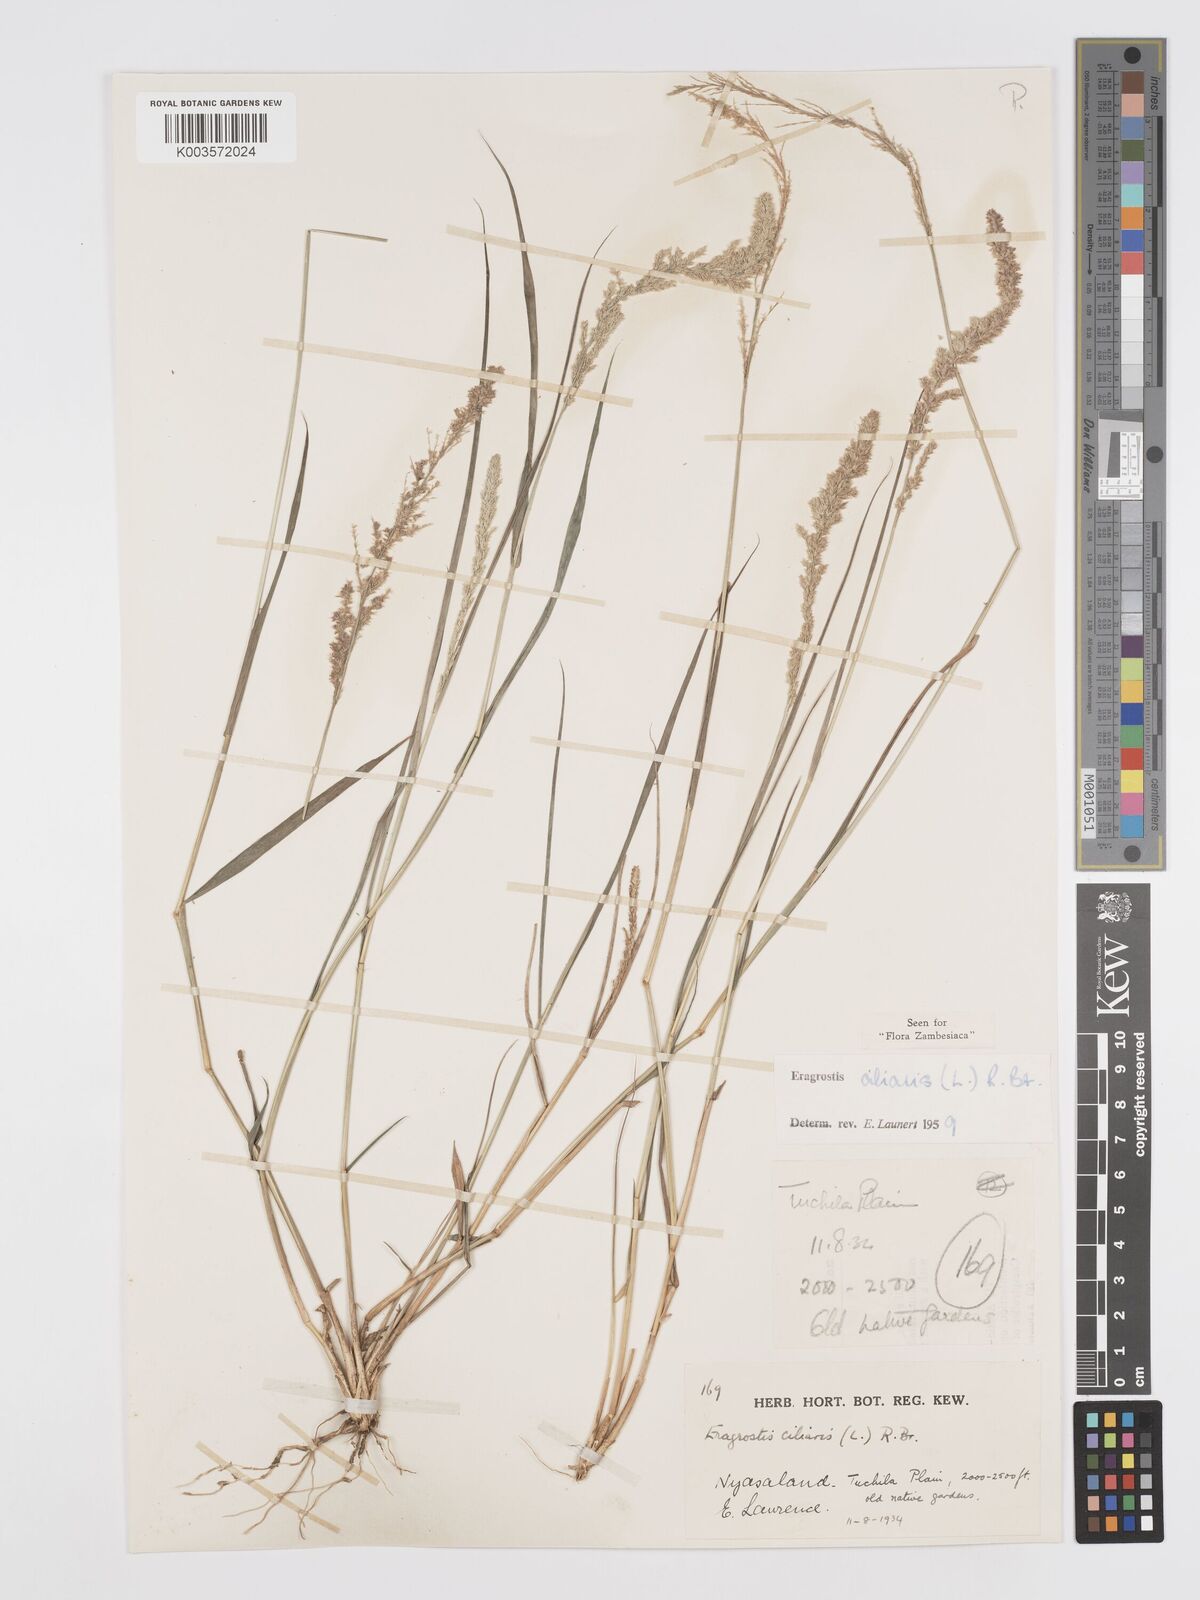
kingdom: Plantae
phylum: Tracheophyta
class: Liliopsida
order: Poales
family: Poaceae
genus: Eragrostis
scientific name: Eragrostis ciliaris
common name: Gophertail lovegrass
